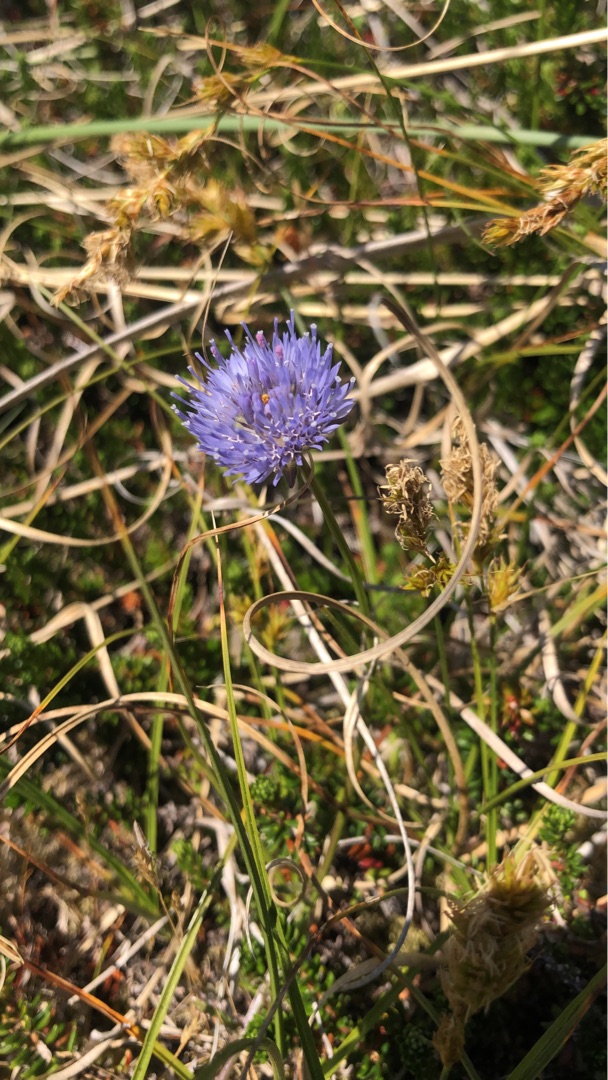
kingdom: Plantae
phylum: Tracheophyta
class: Magnoliopsida
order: Asterales
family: Campanulaceae
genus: Jasione
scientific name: Jasione montana
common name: Blåmunke
